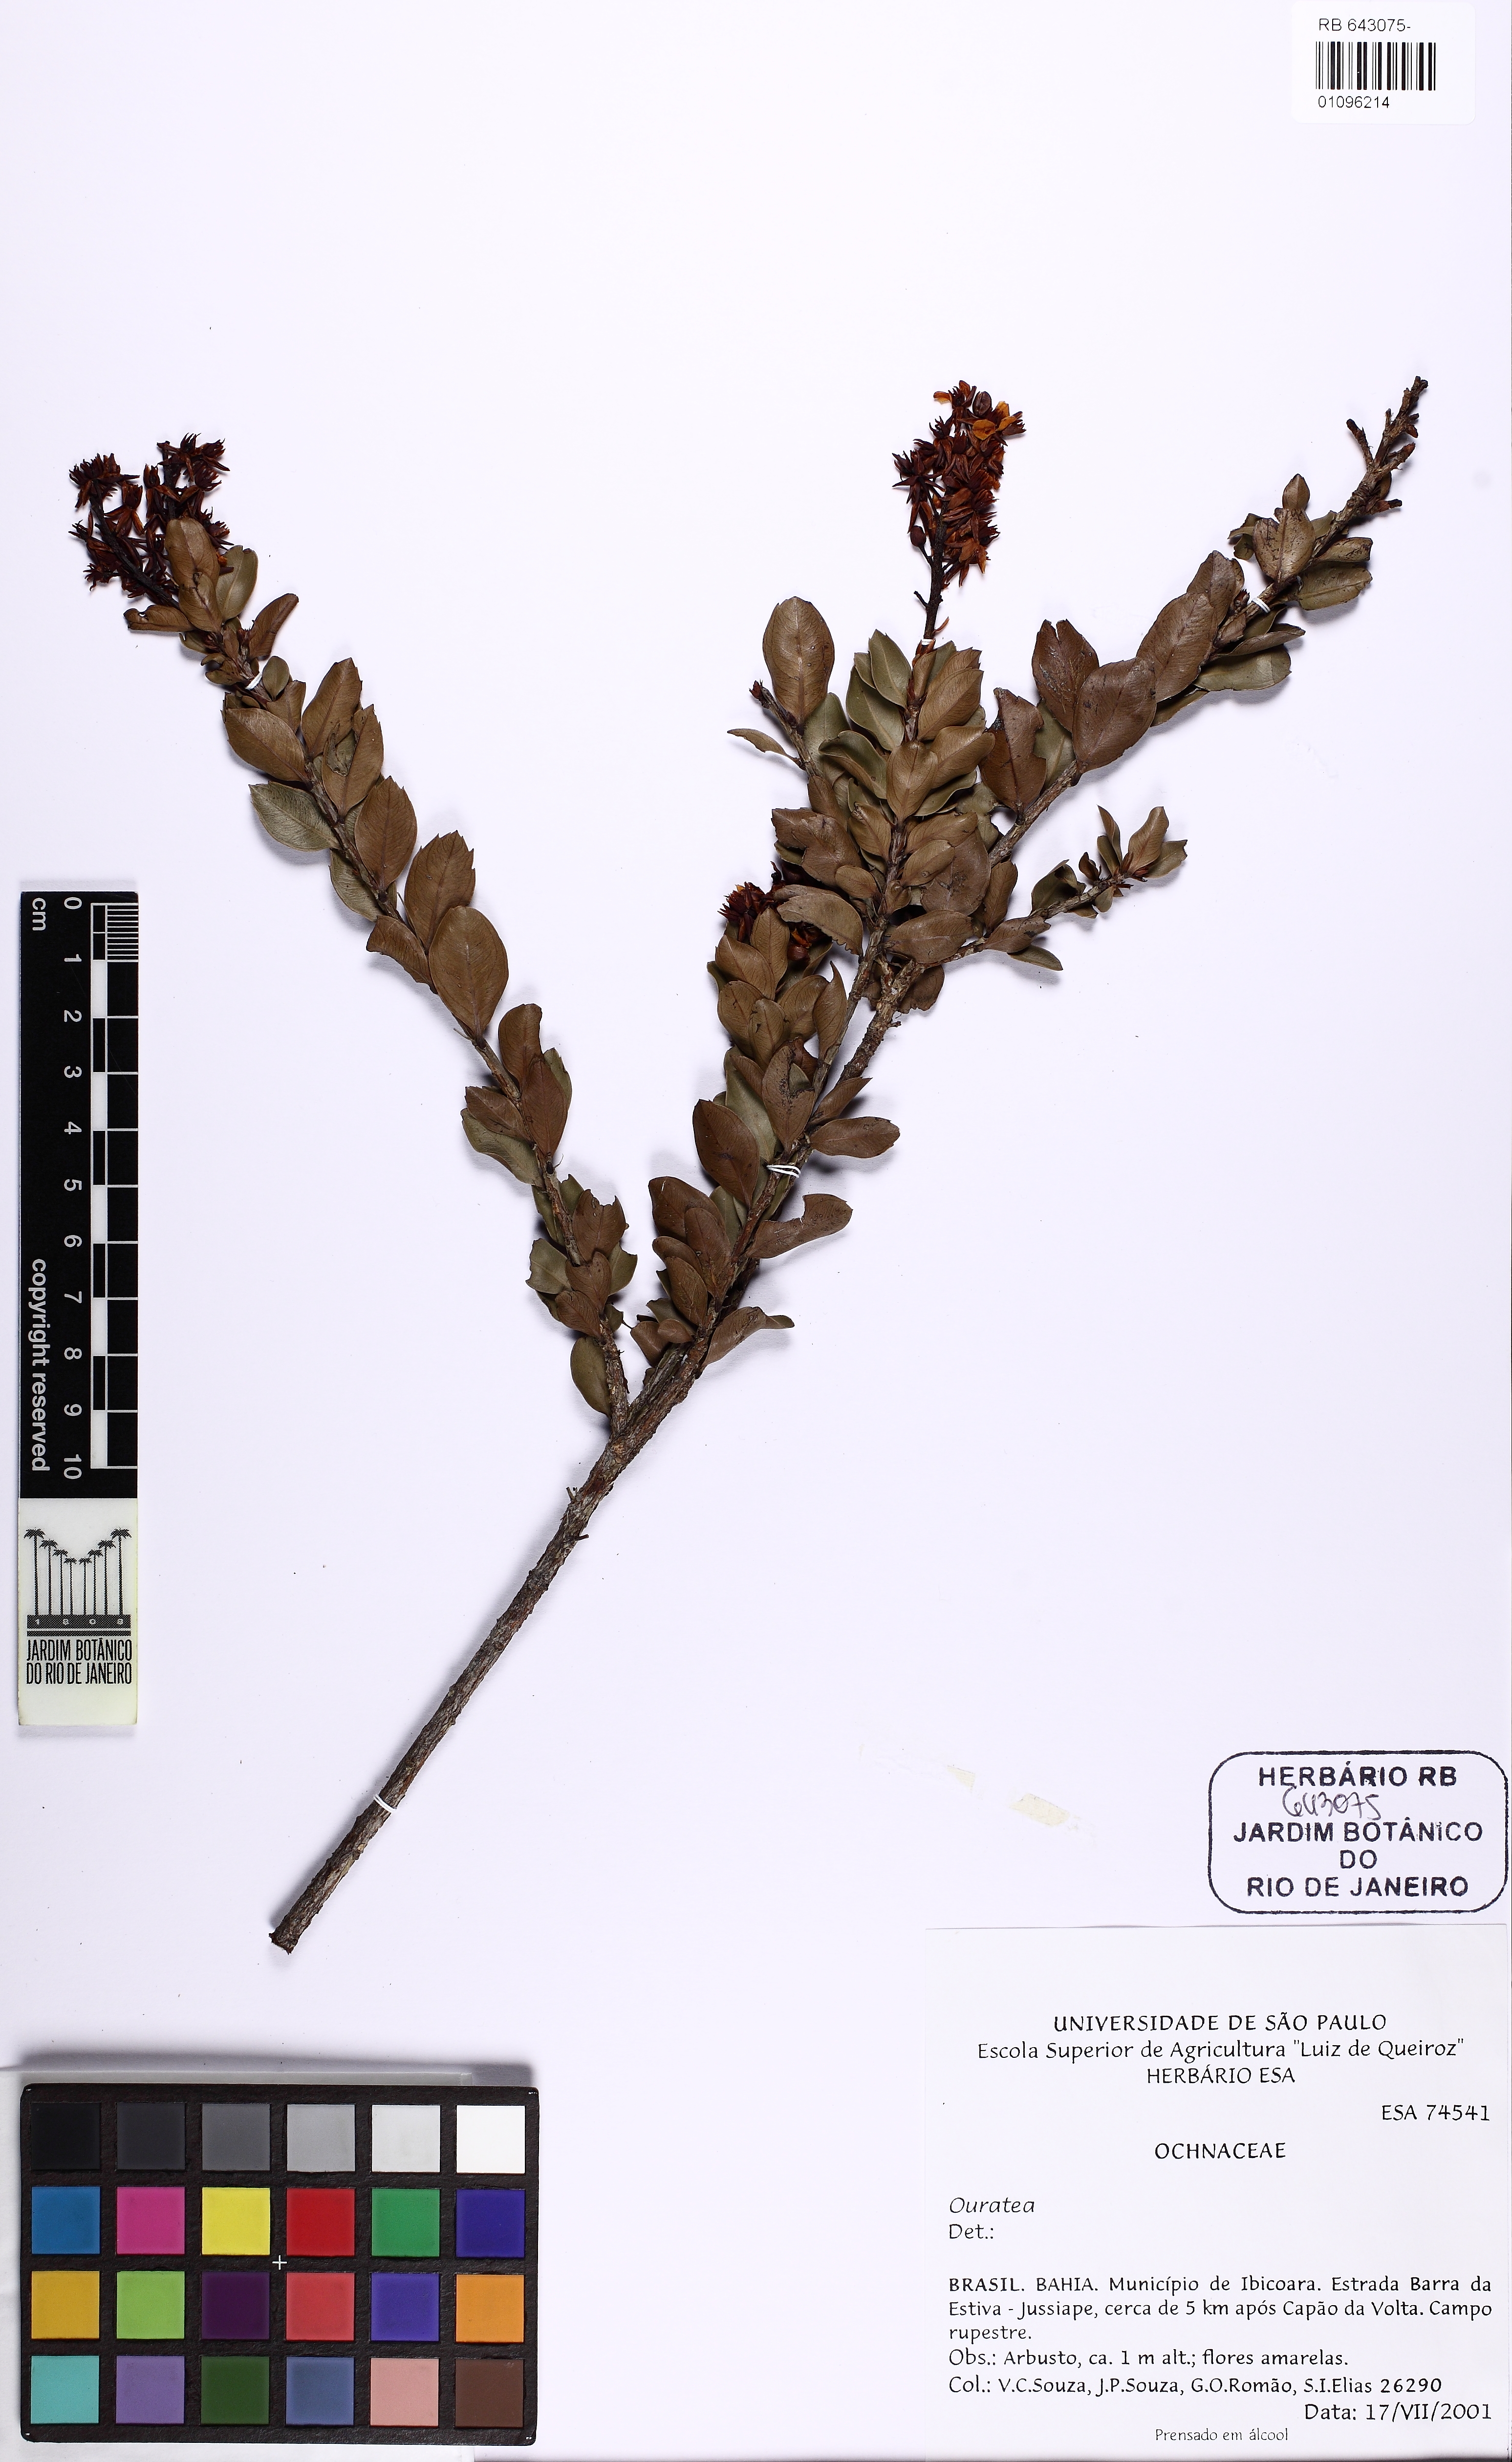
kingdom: Plantae
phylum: Tracheophyta
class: Magnoliopsida
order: Malpighiales
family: Ochnaceae
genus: Ouratea
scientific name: Ouratea
